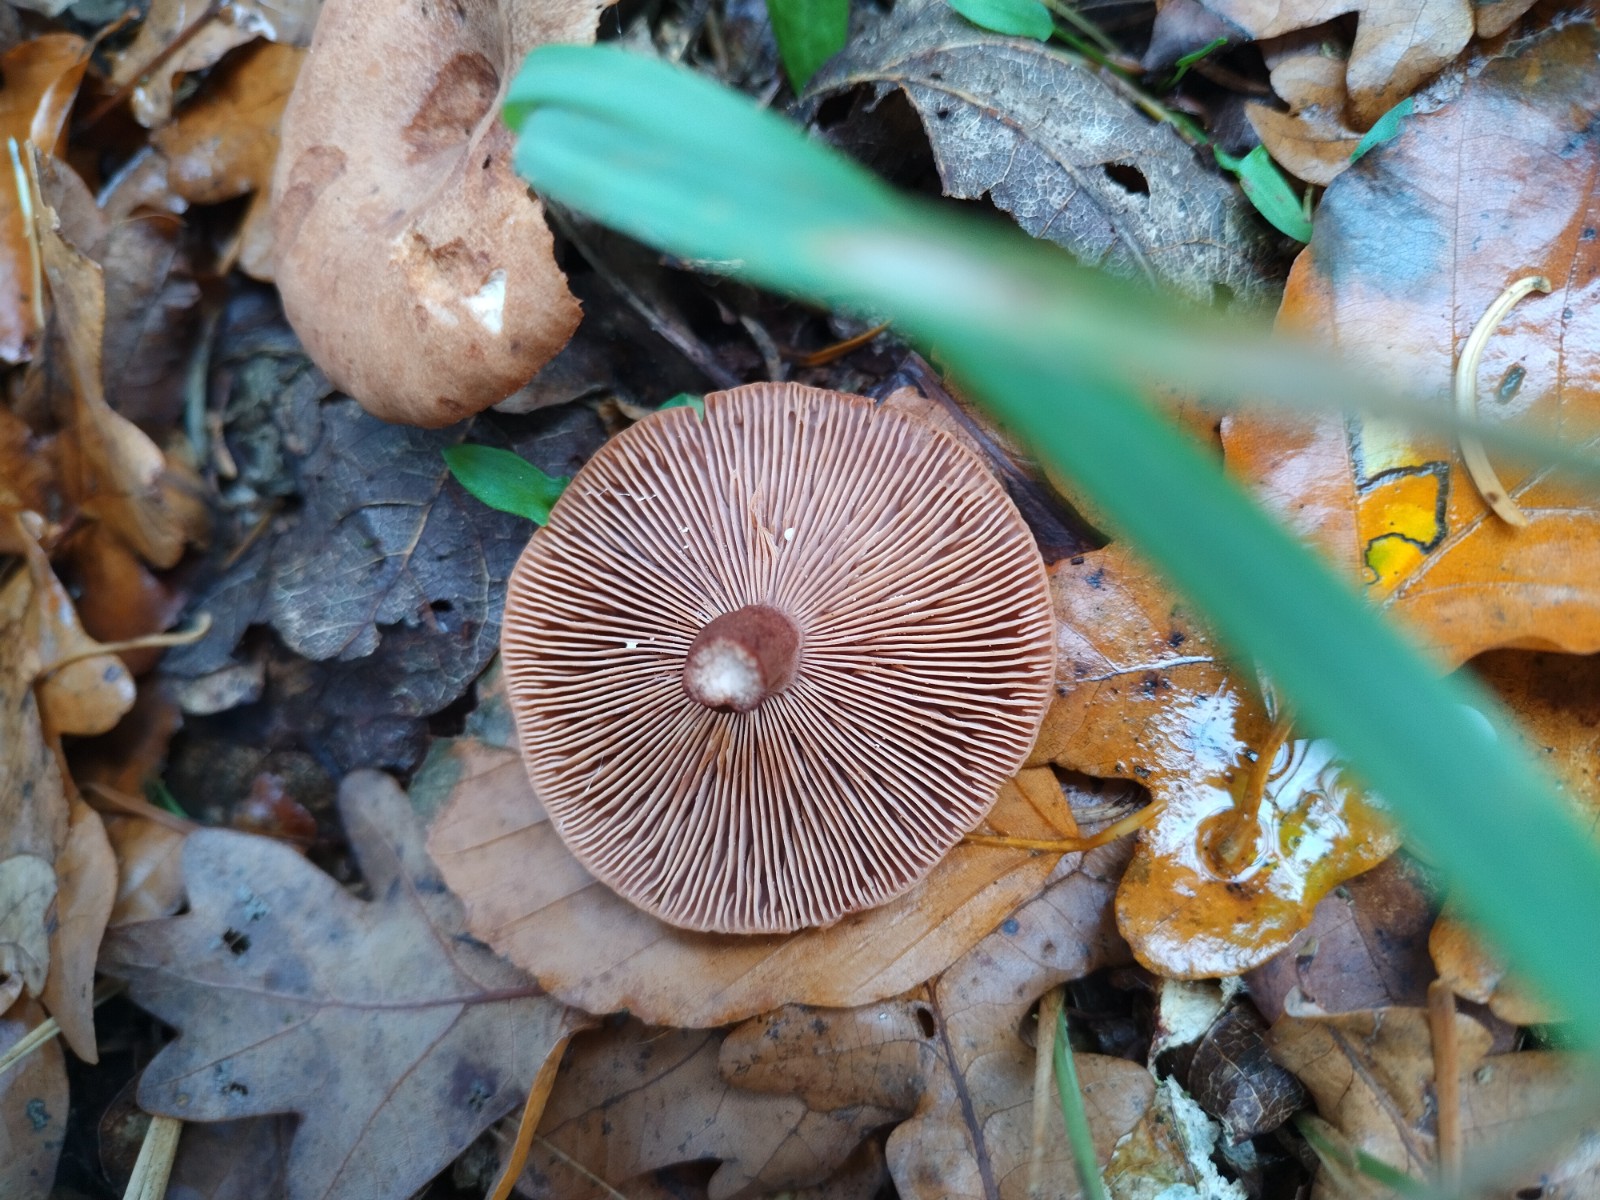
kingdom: Fungi
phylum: Basidiomycota
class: Agaricomycetes
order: Russulales
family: Russulaceae
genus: Lactarius
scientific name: Lactarius quietus
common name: ege-mælkehat
